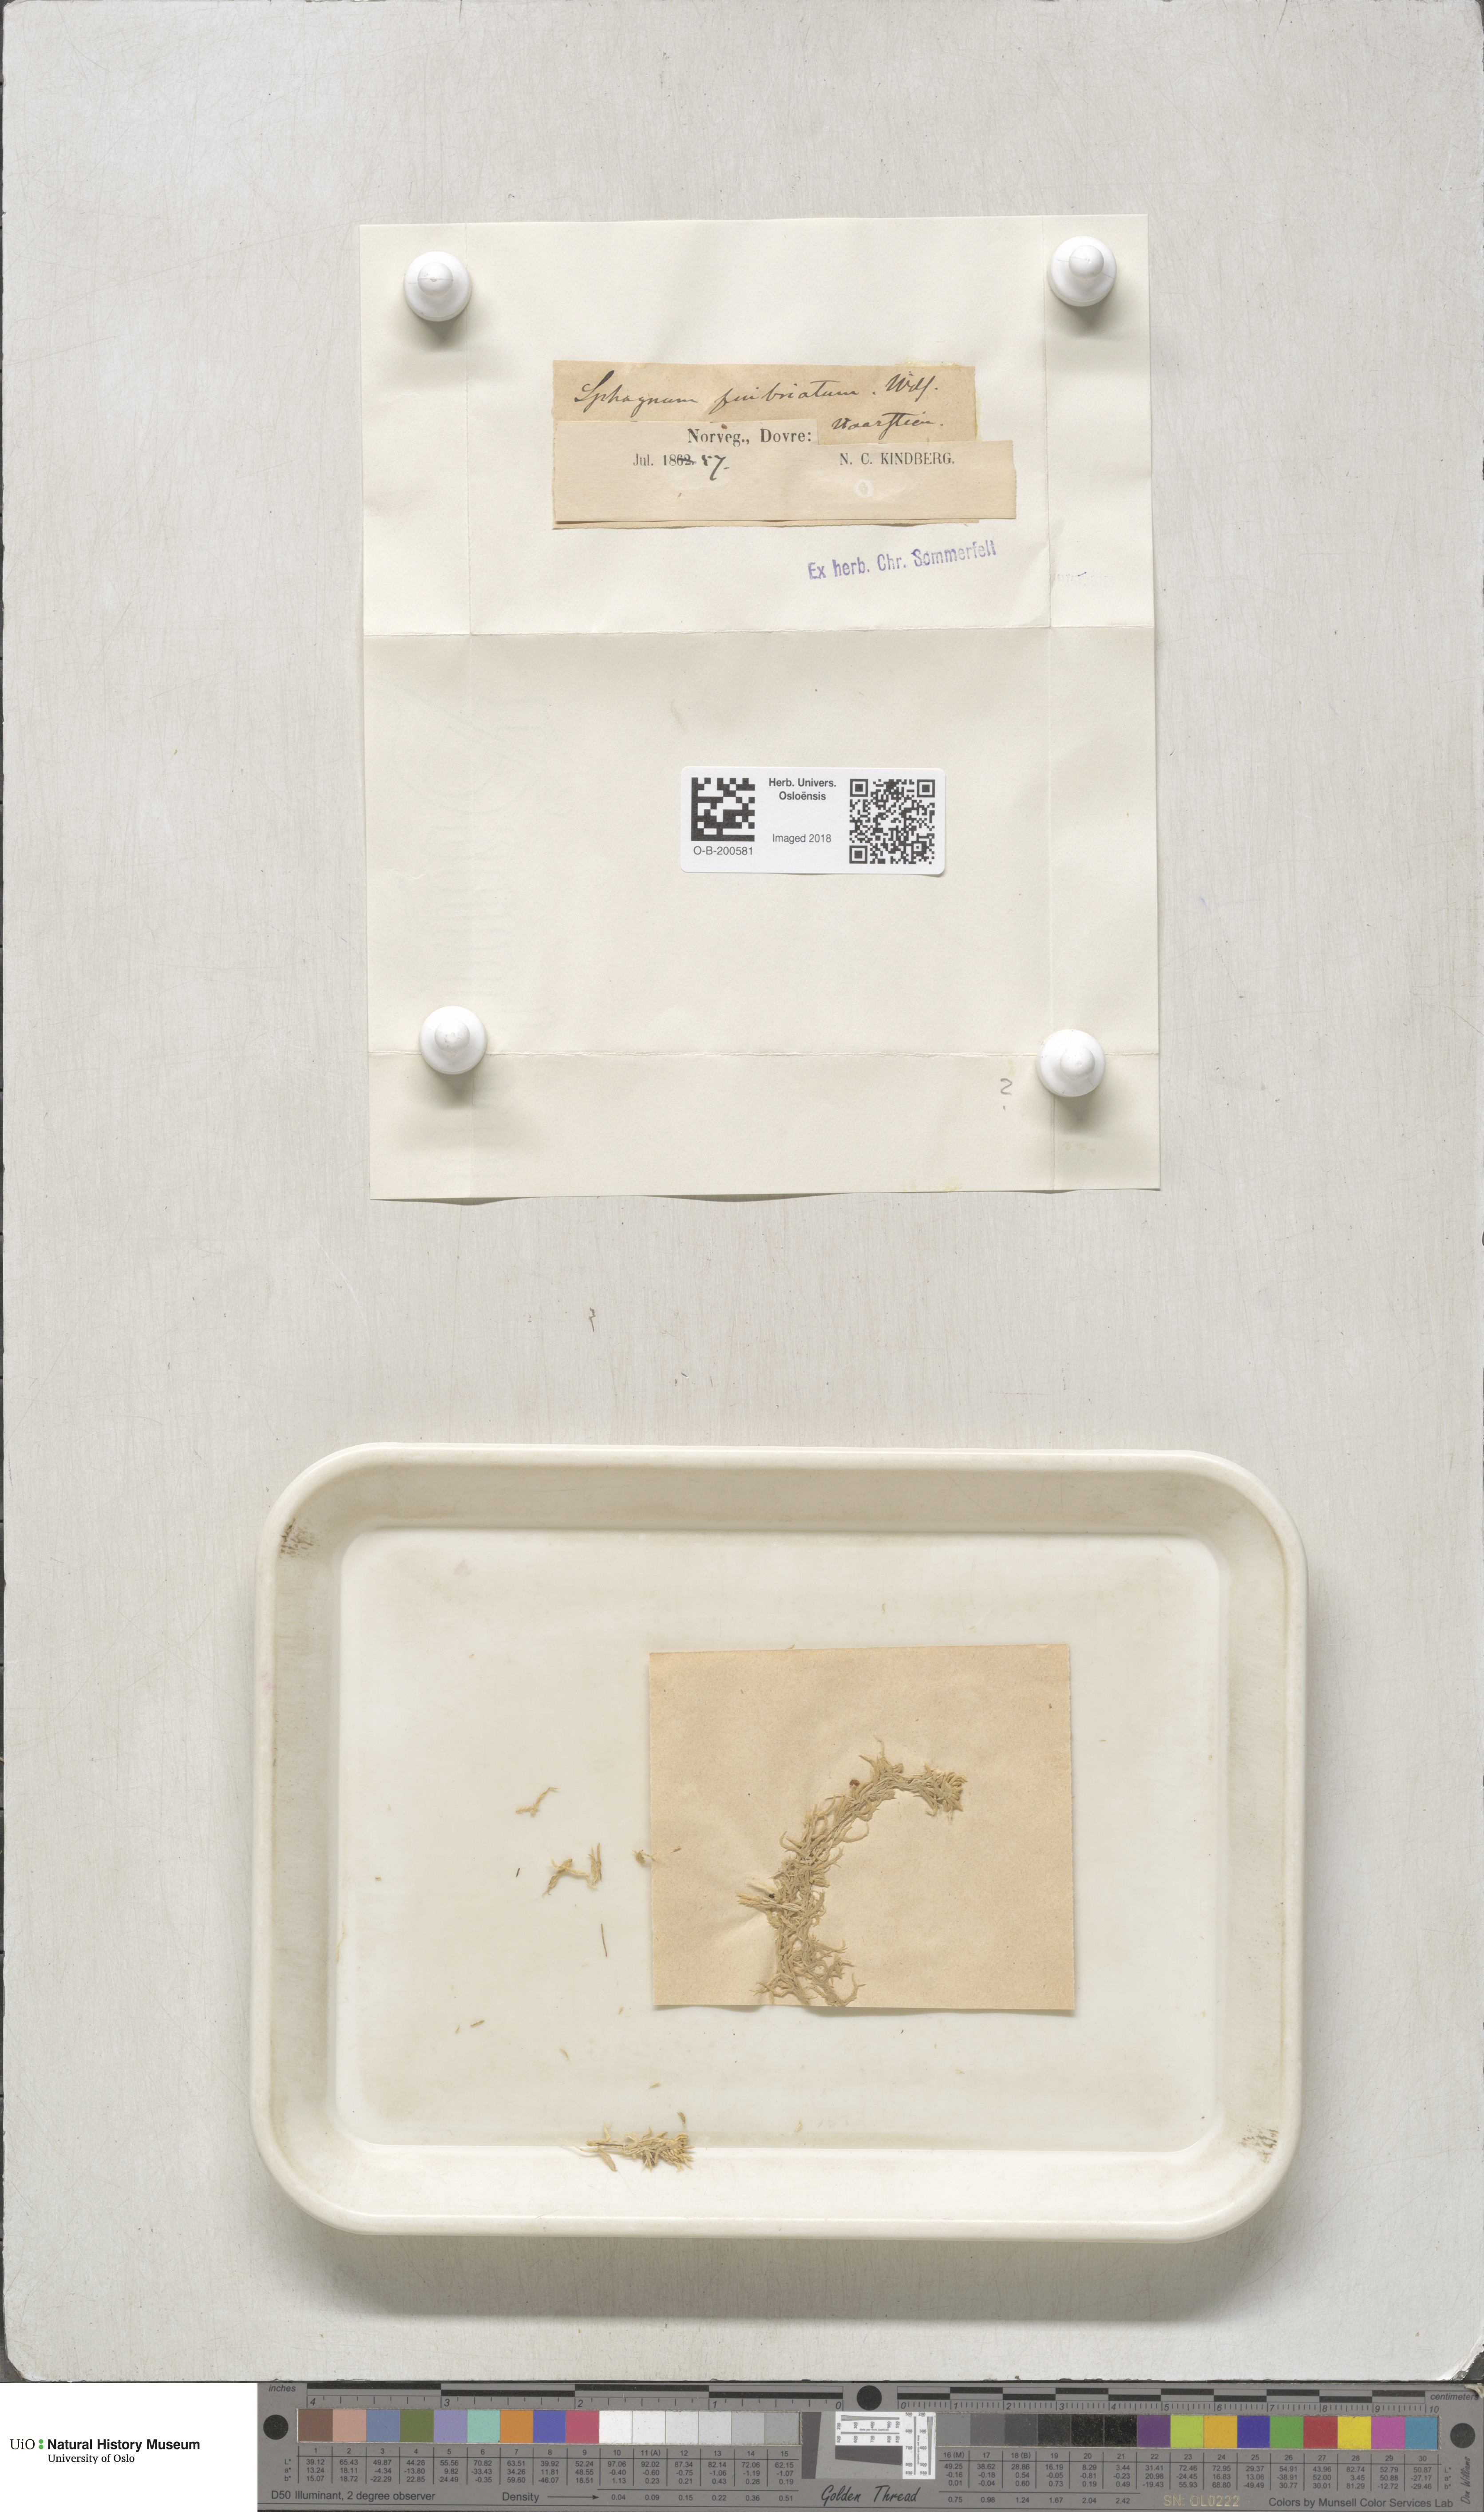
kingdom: Plantae
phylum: Bryophyta
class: Sphagnopsida
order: Sphagnales
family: Sphagnaceae
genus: Sphagnum
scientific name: Sphagnum fimbriatum
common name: Fringed peat moss
